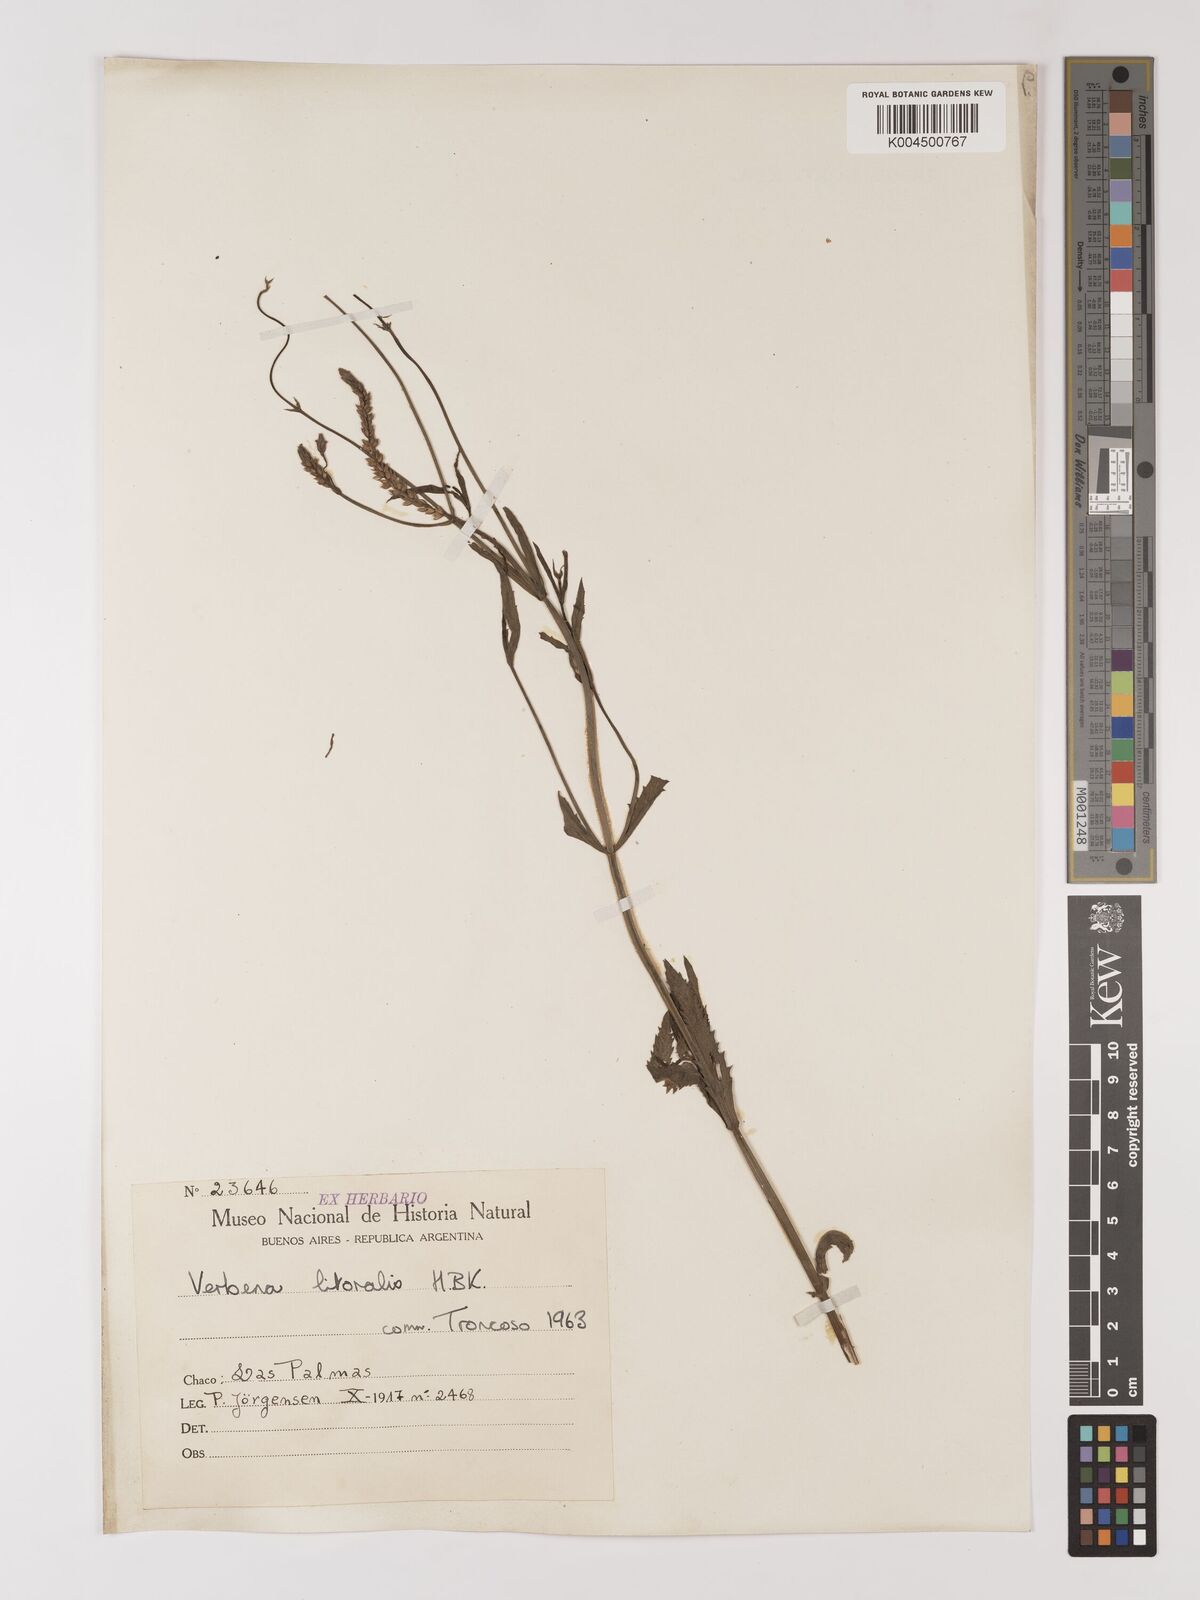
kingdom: Plantae
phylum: Tracheophyta
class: Magnoliopsida
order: Lamiales
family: Verbenaceae
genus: Verbena
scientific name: Verbena litoralis
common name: Seashore vervain
